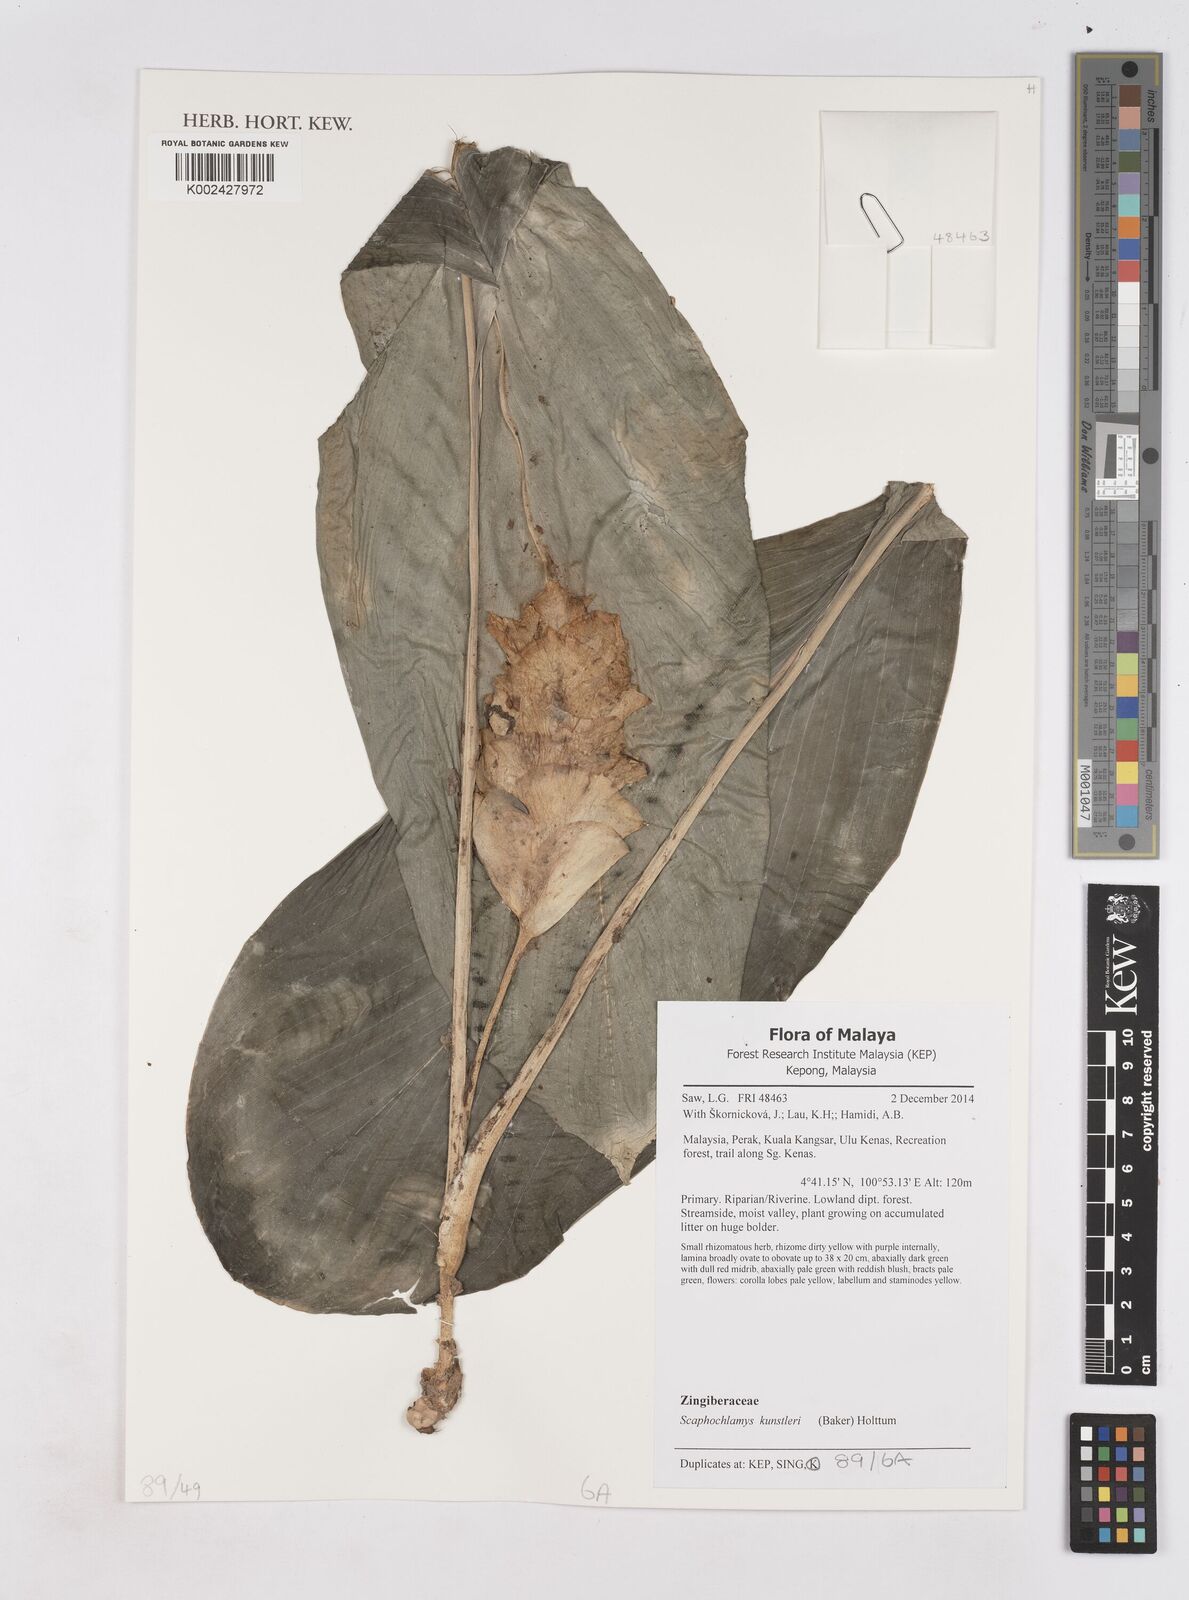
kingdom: Plantae
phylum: Tracheophyta
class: Liliopsida
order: Zingiberales
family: Zingiberaceae
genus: Scaphochlamys
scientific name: Scaphochlamys kunstleri
